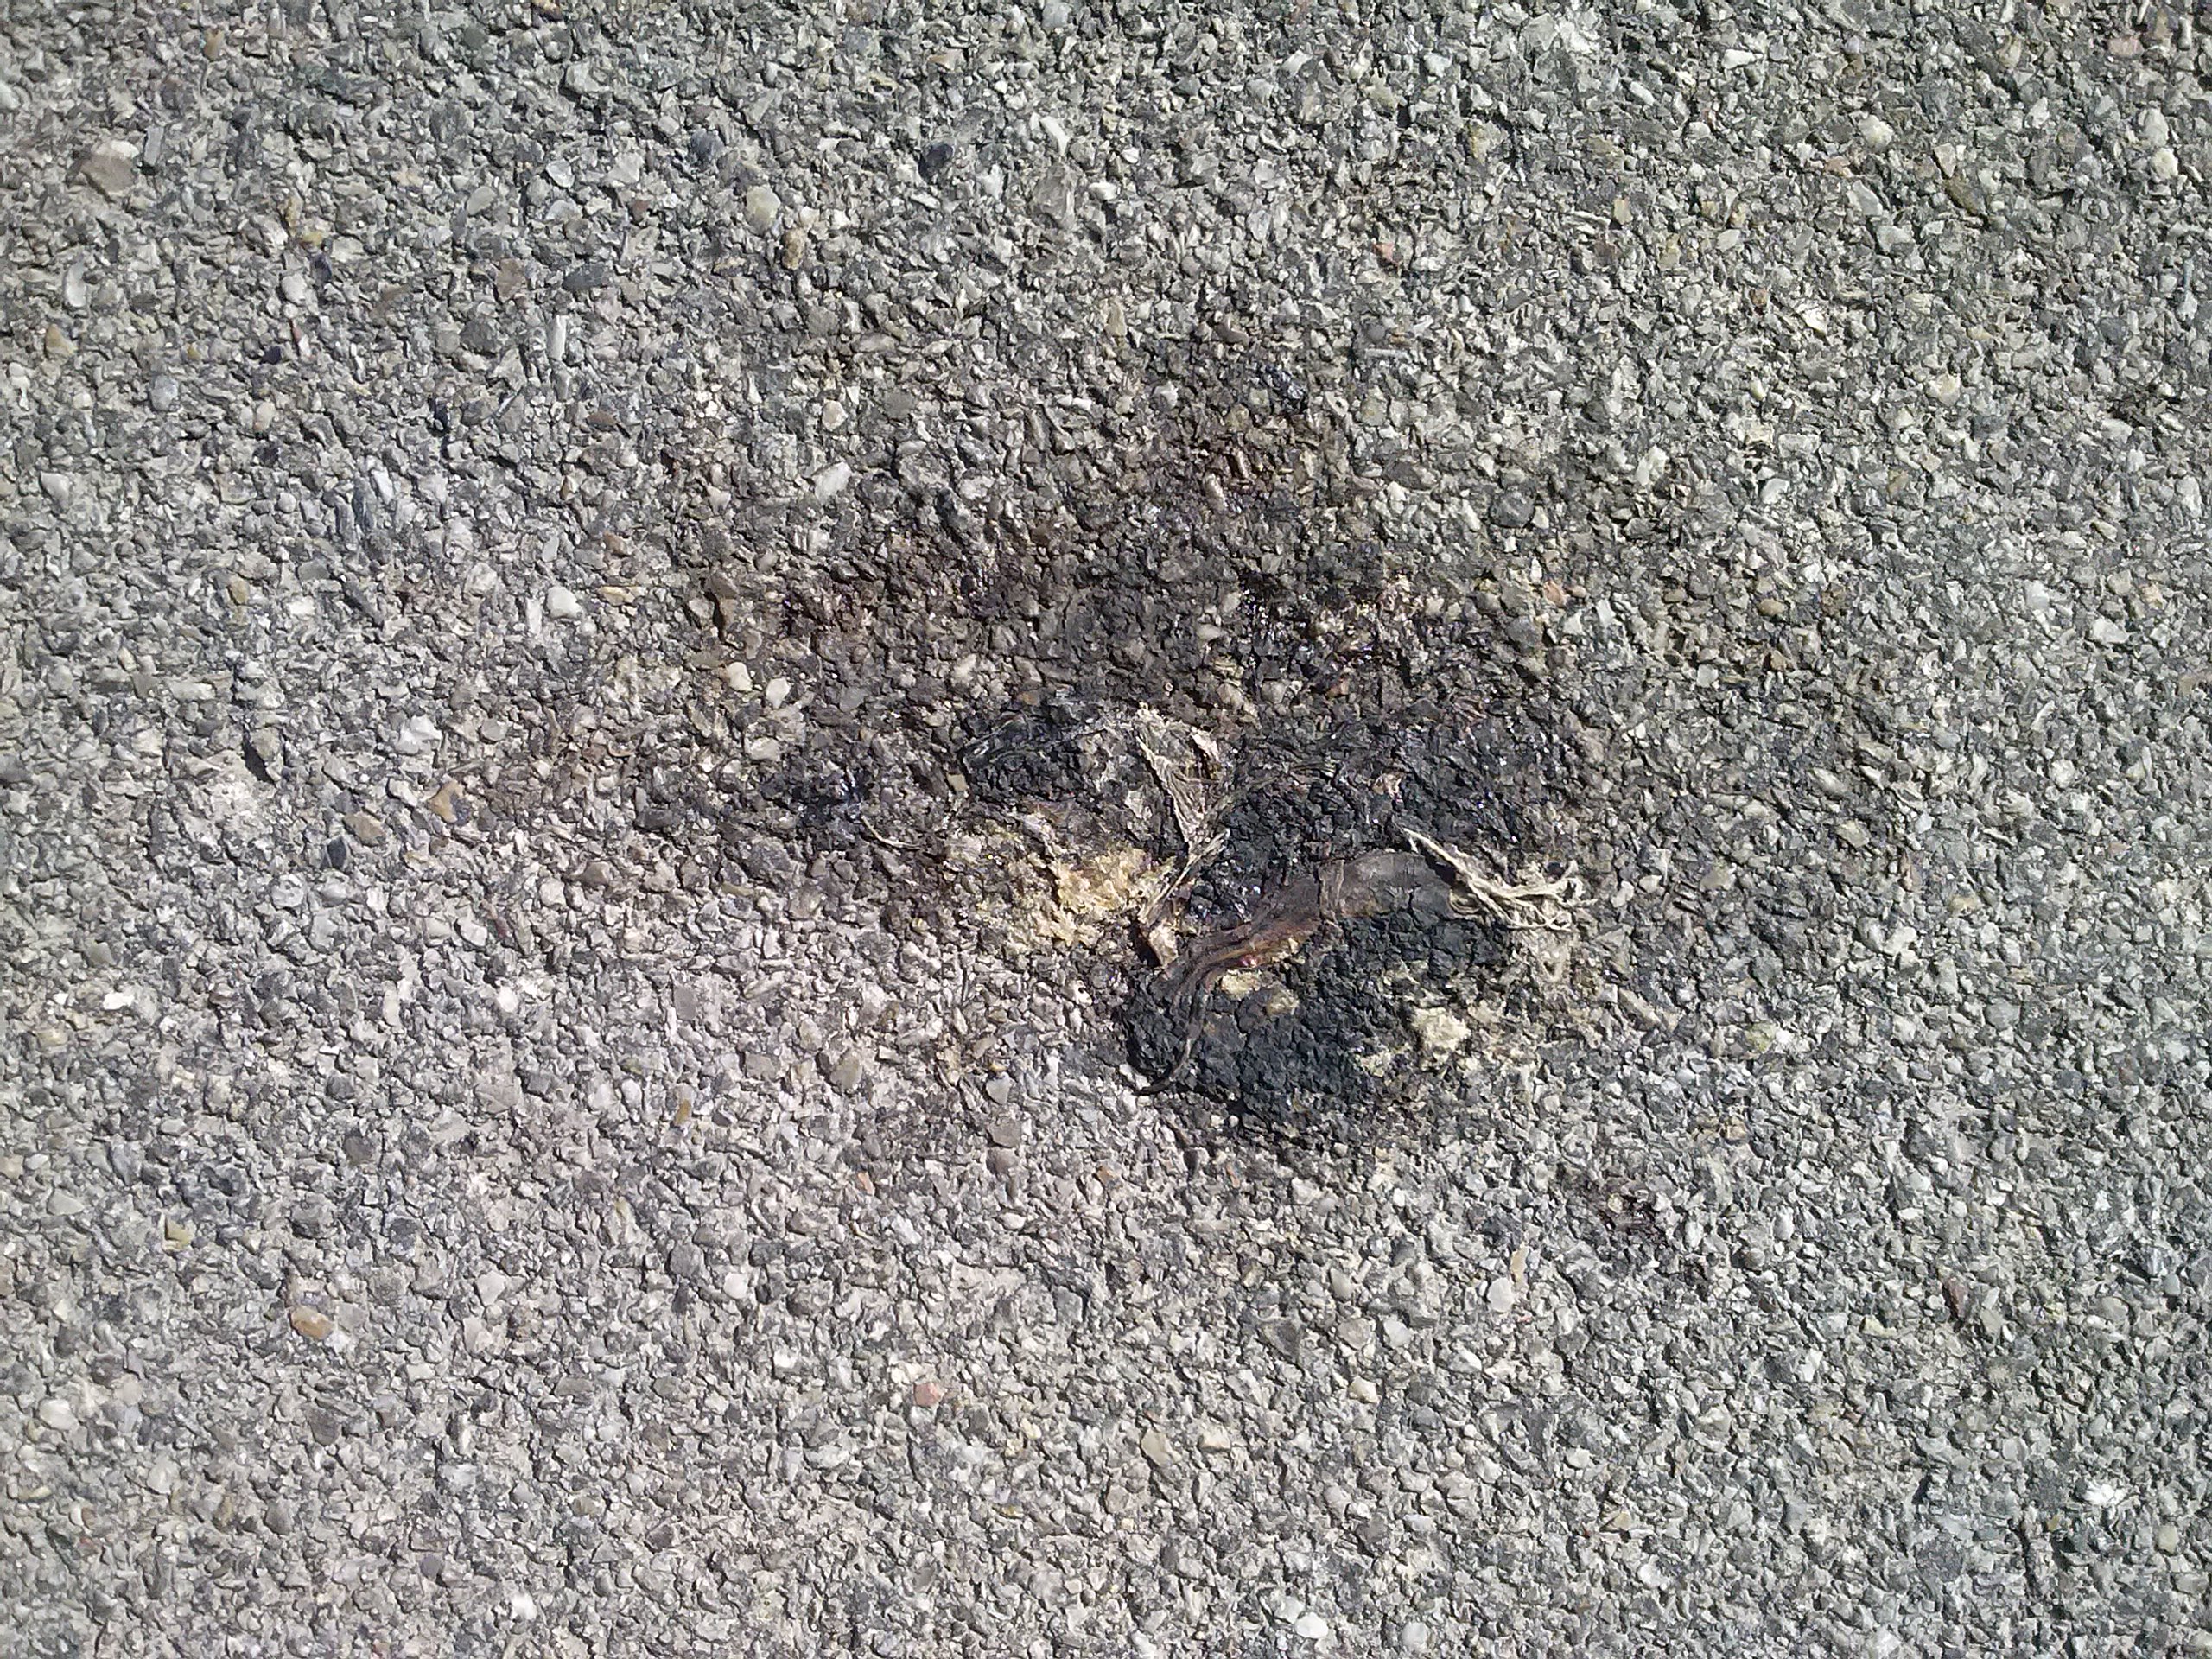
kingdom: Animalia
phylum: Chordata
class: Amphibia
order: Anura
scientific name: Anura
